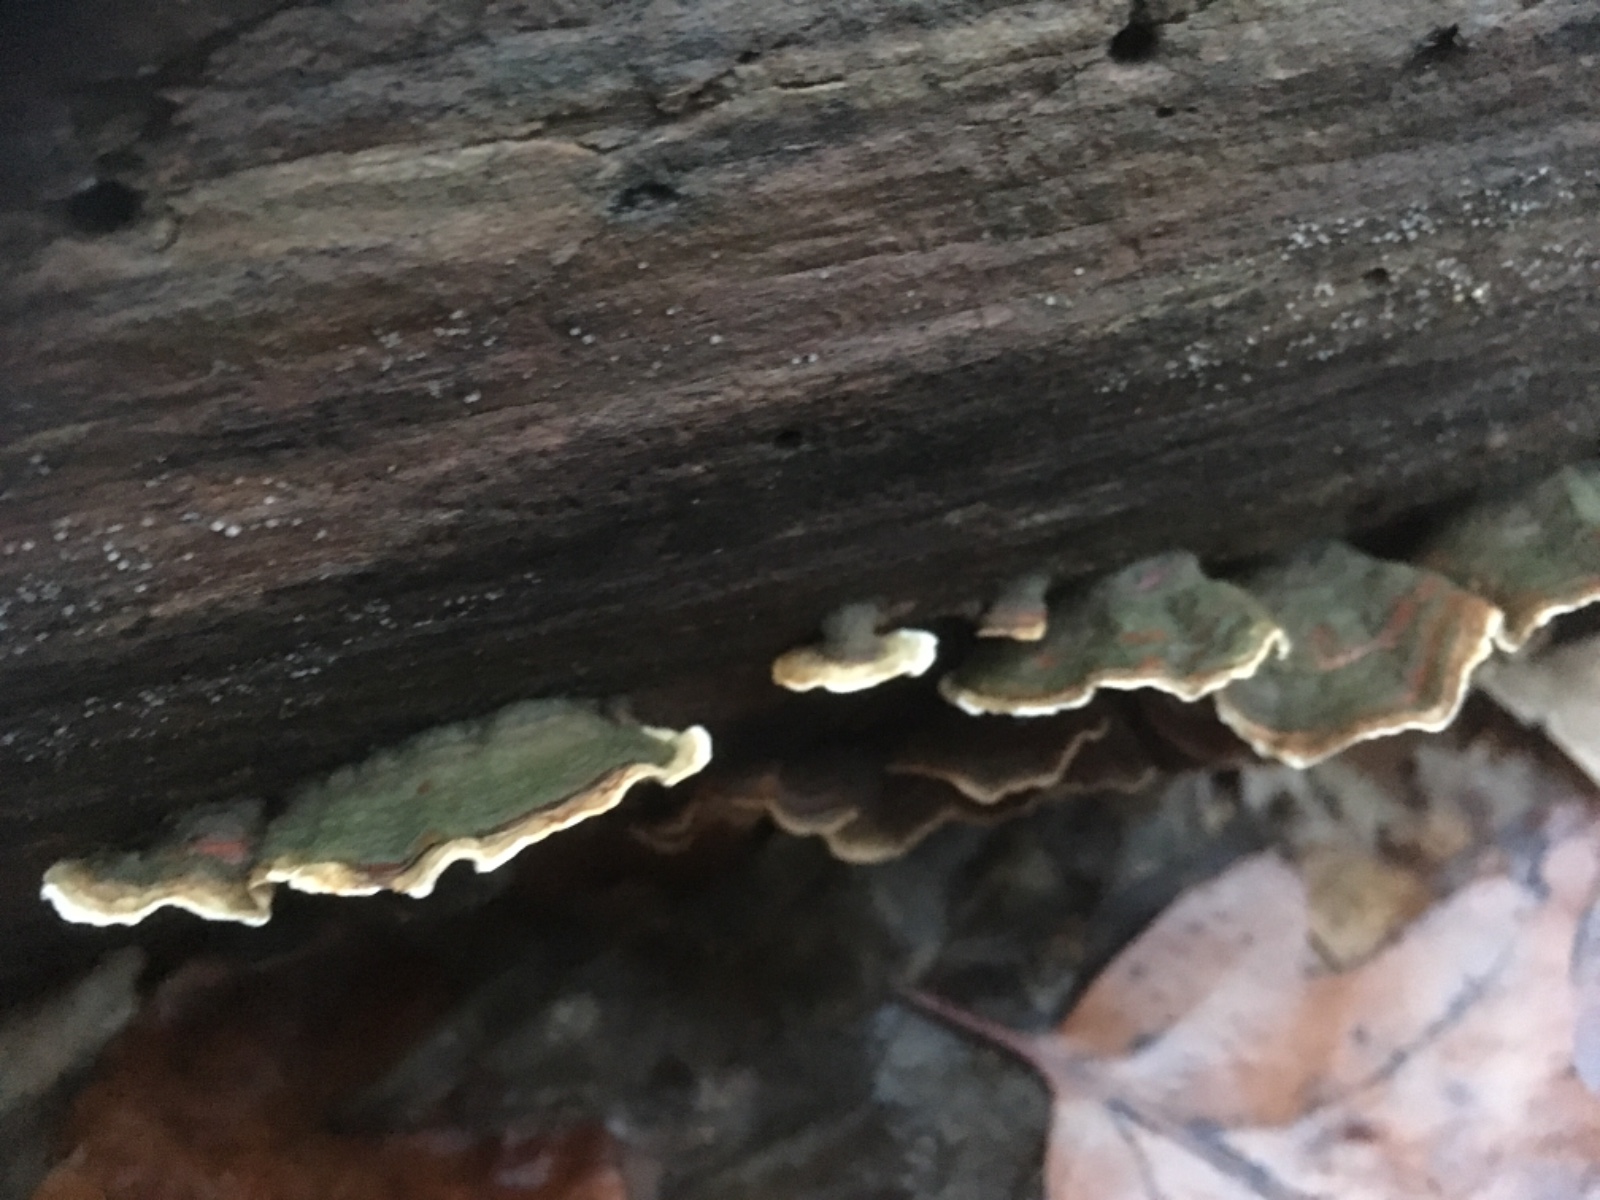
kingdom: Fungi
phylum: Basidiomycota
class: Agaricomycetes
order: Russulales
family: Stereaceae
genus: Stereum
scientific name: Stereum subtomentosum
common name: smuk lædersvamp
